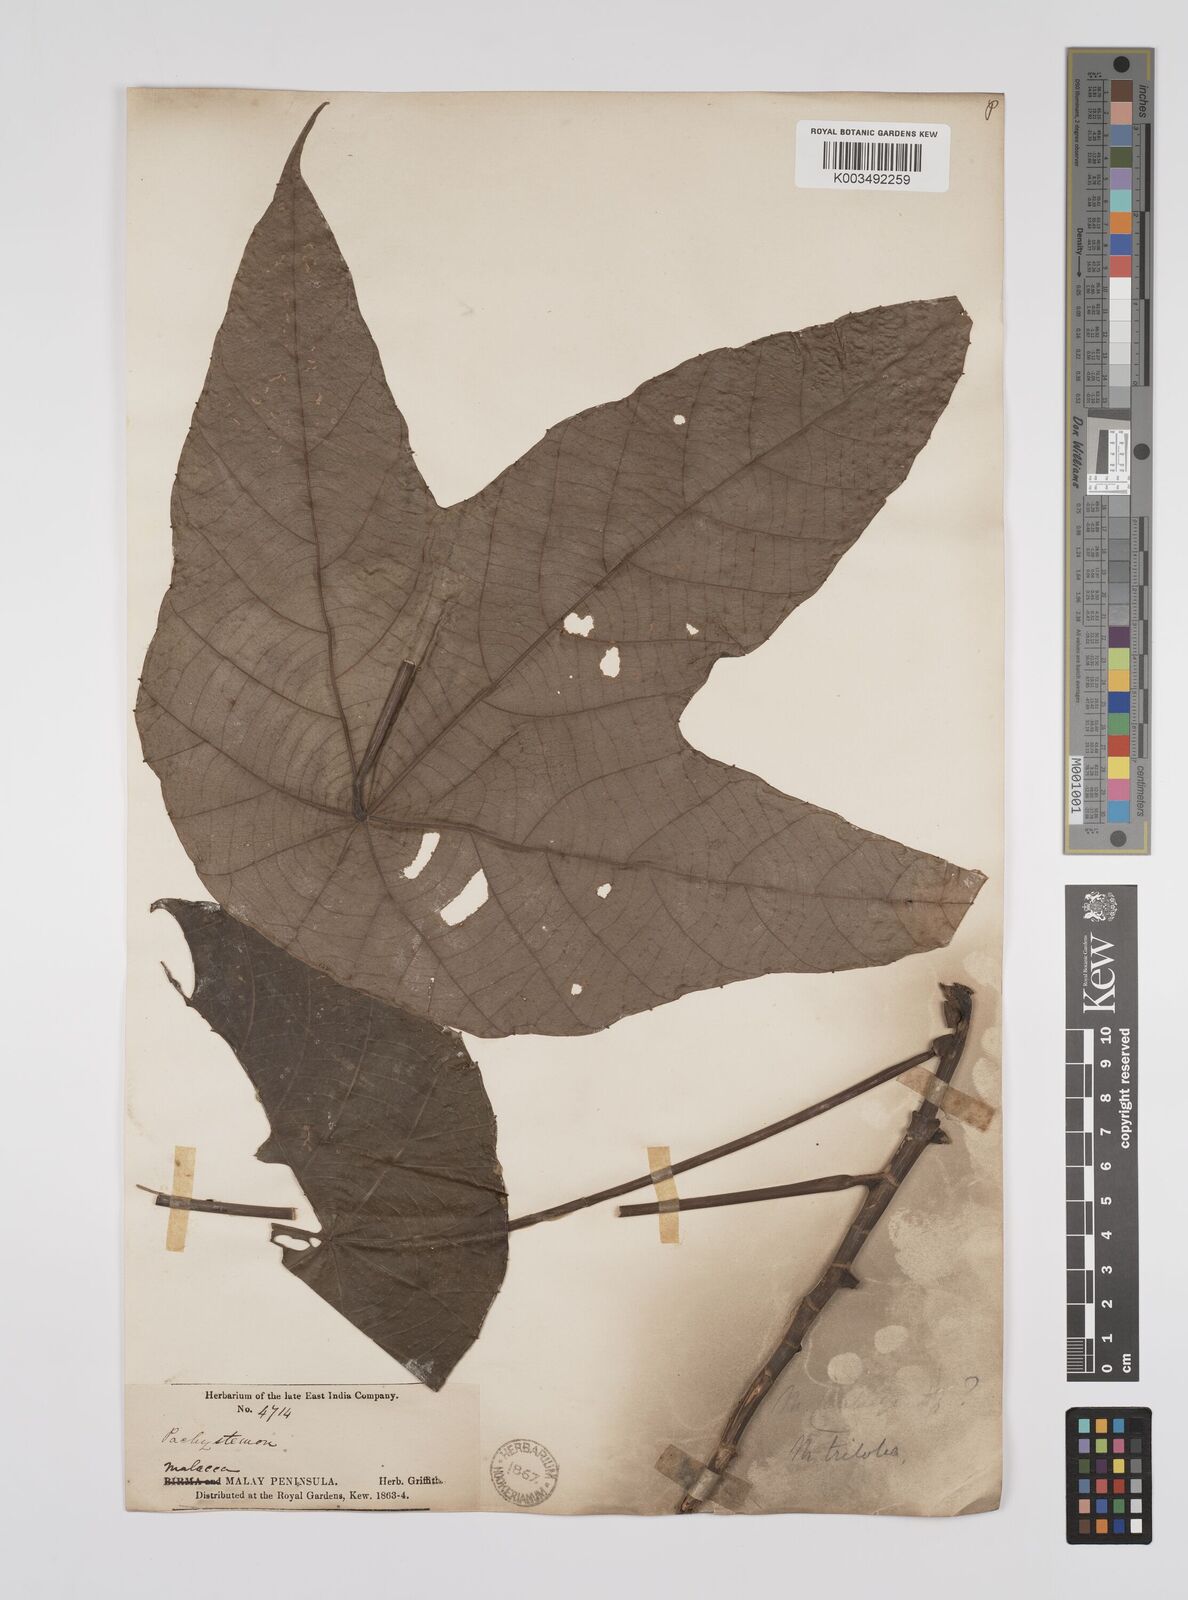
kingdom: Plantae
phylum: Tracheophyta
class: Magnoliopsida
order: Malpighiales
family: Euphorbiaceae
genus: Macaranga
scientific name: Macaranga triloba
